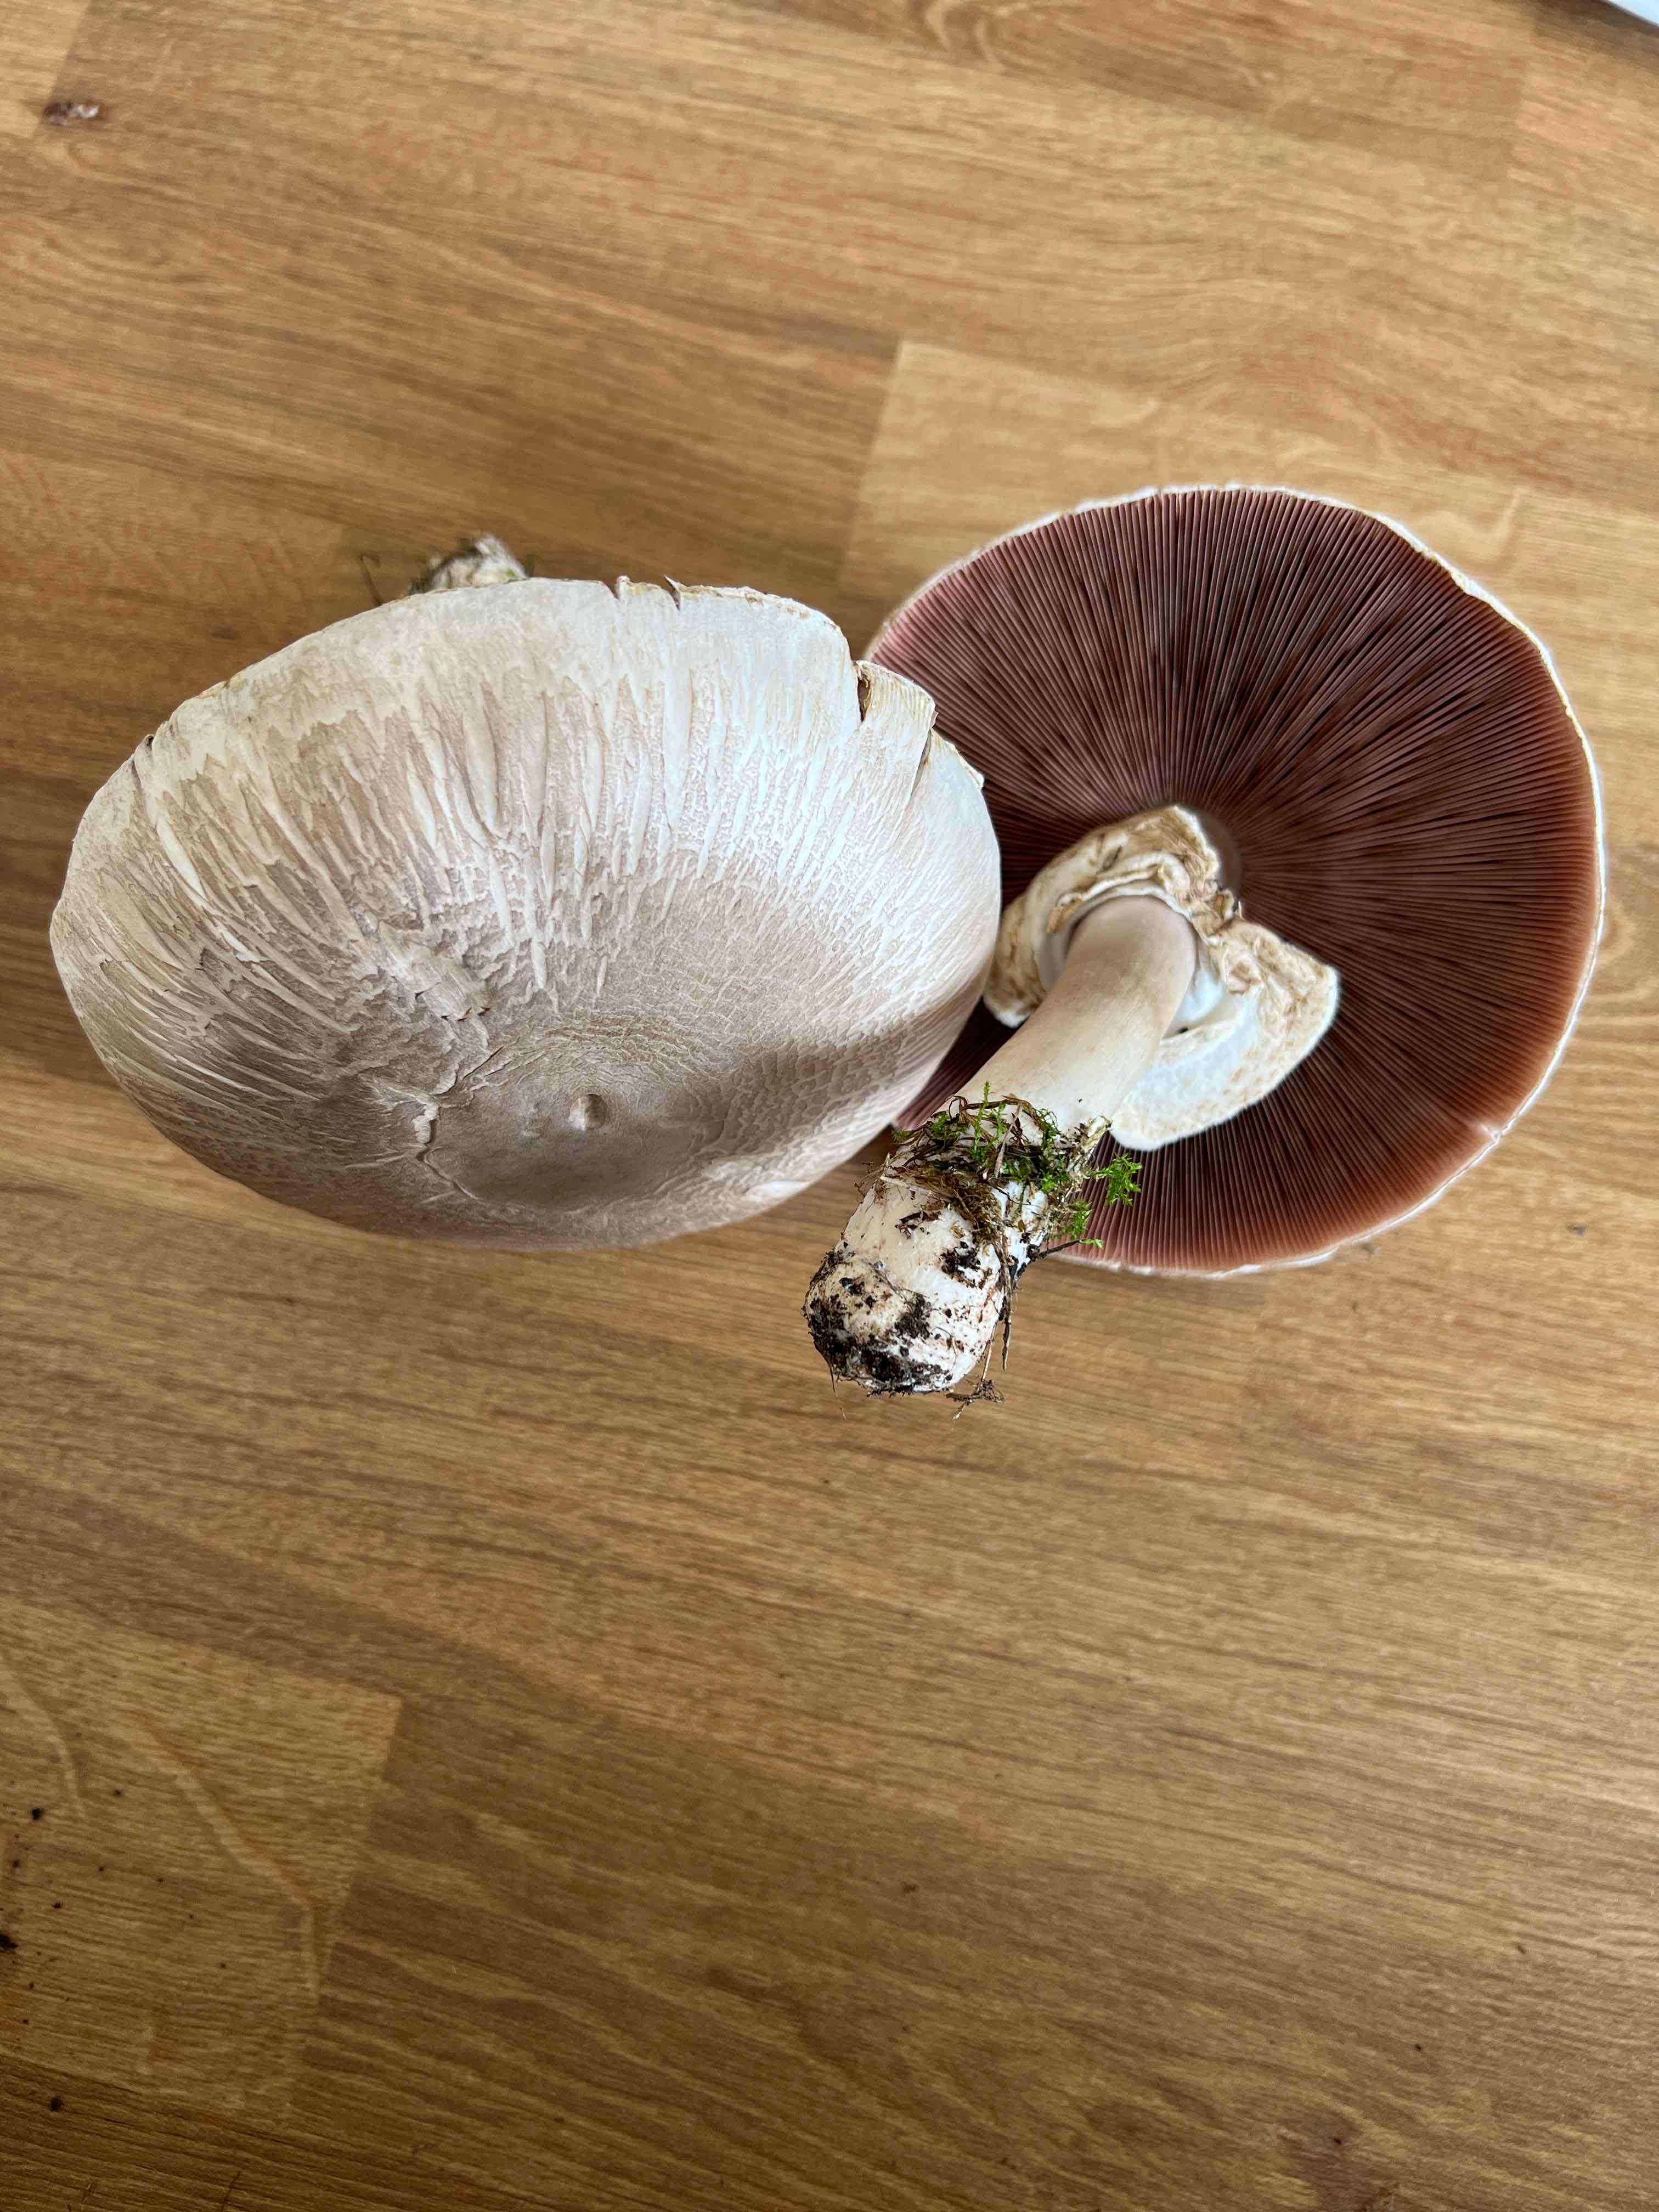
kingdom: Fungi
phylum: Basidiomycota
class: Agaricomycetes
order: Agaricales
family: Agaricaceae
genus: Agaricus
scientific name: Agaricus
